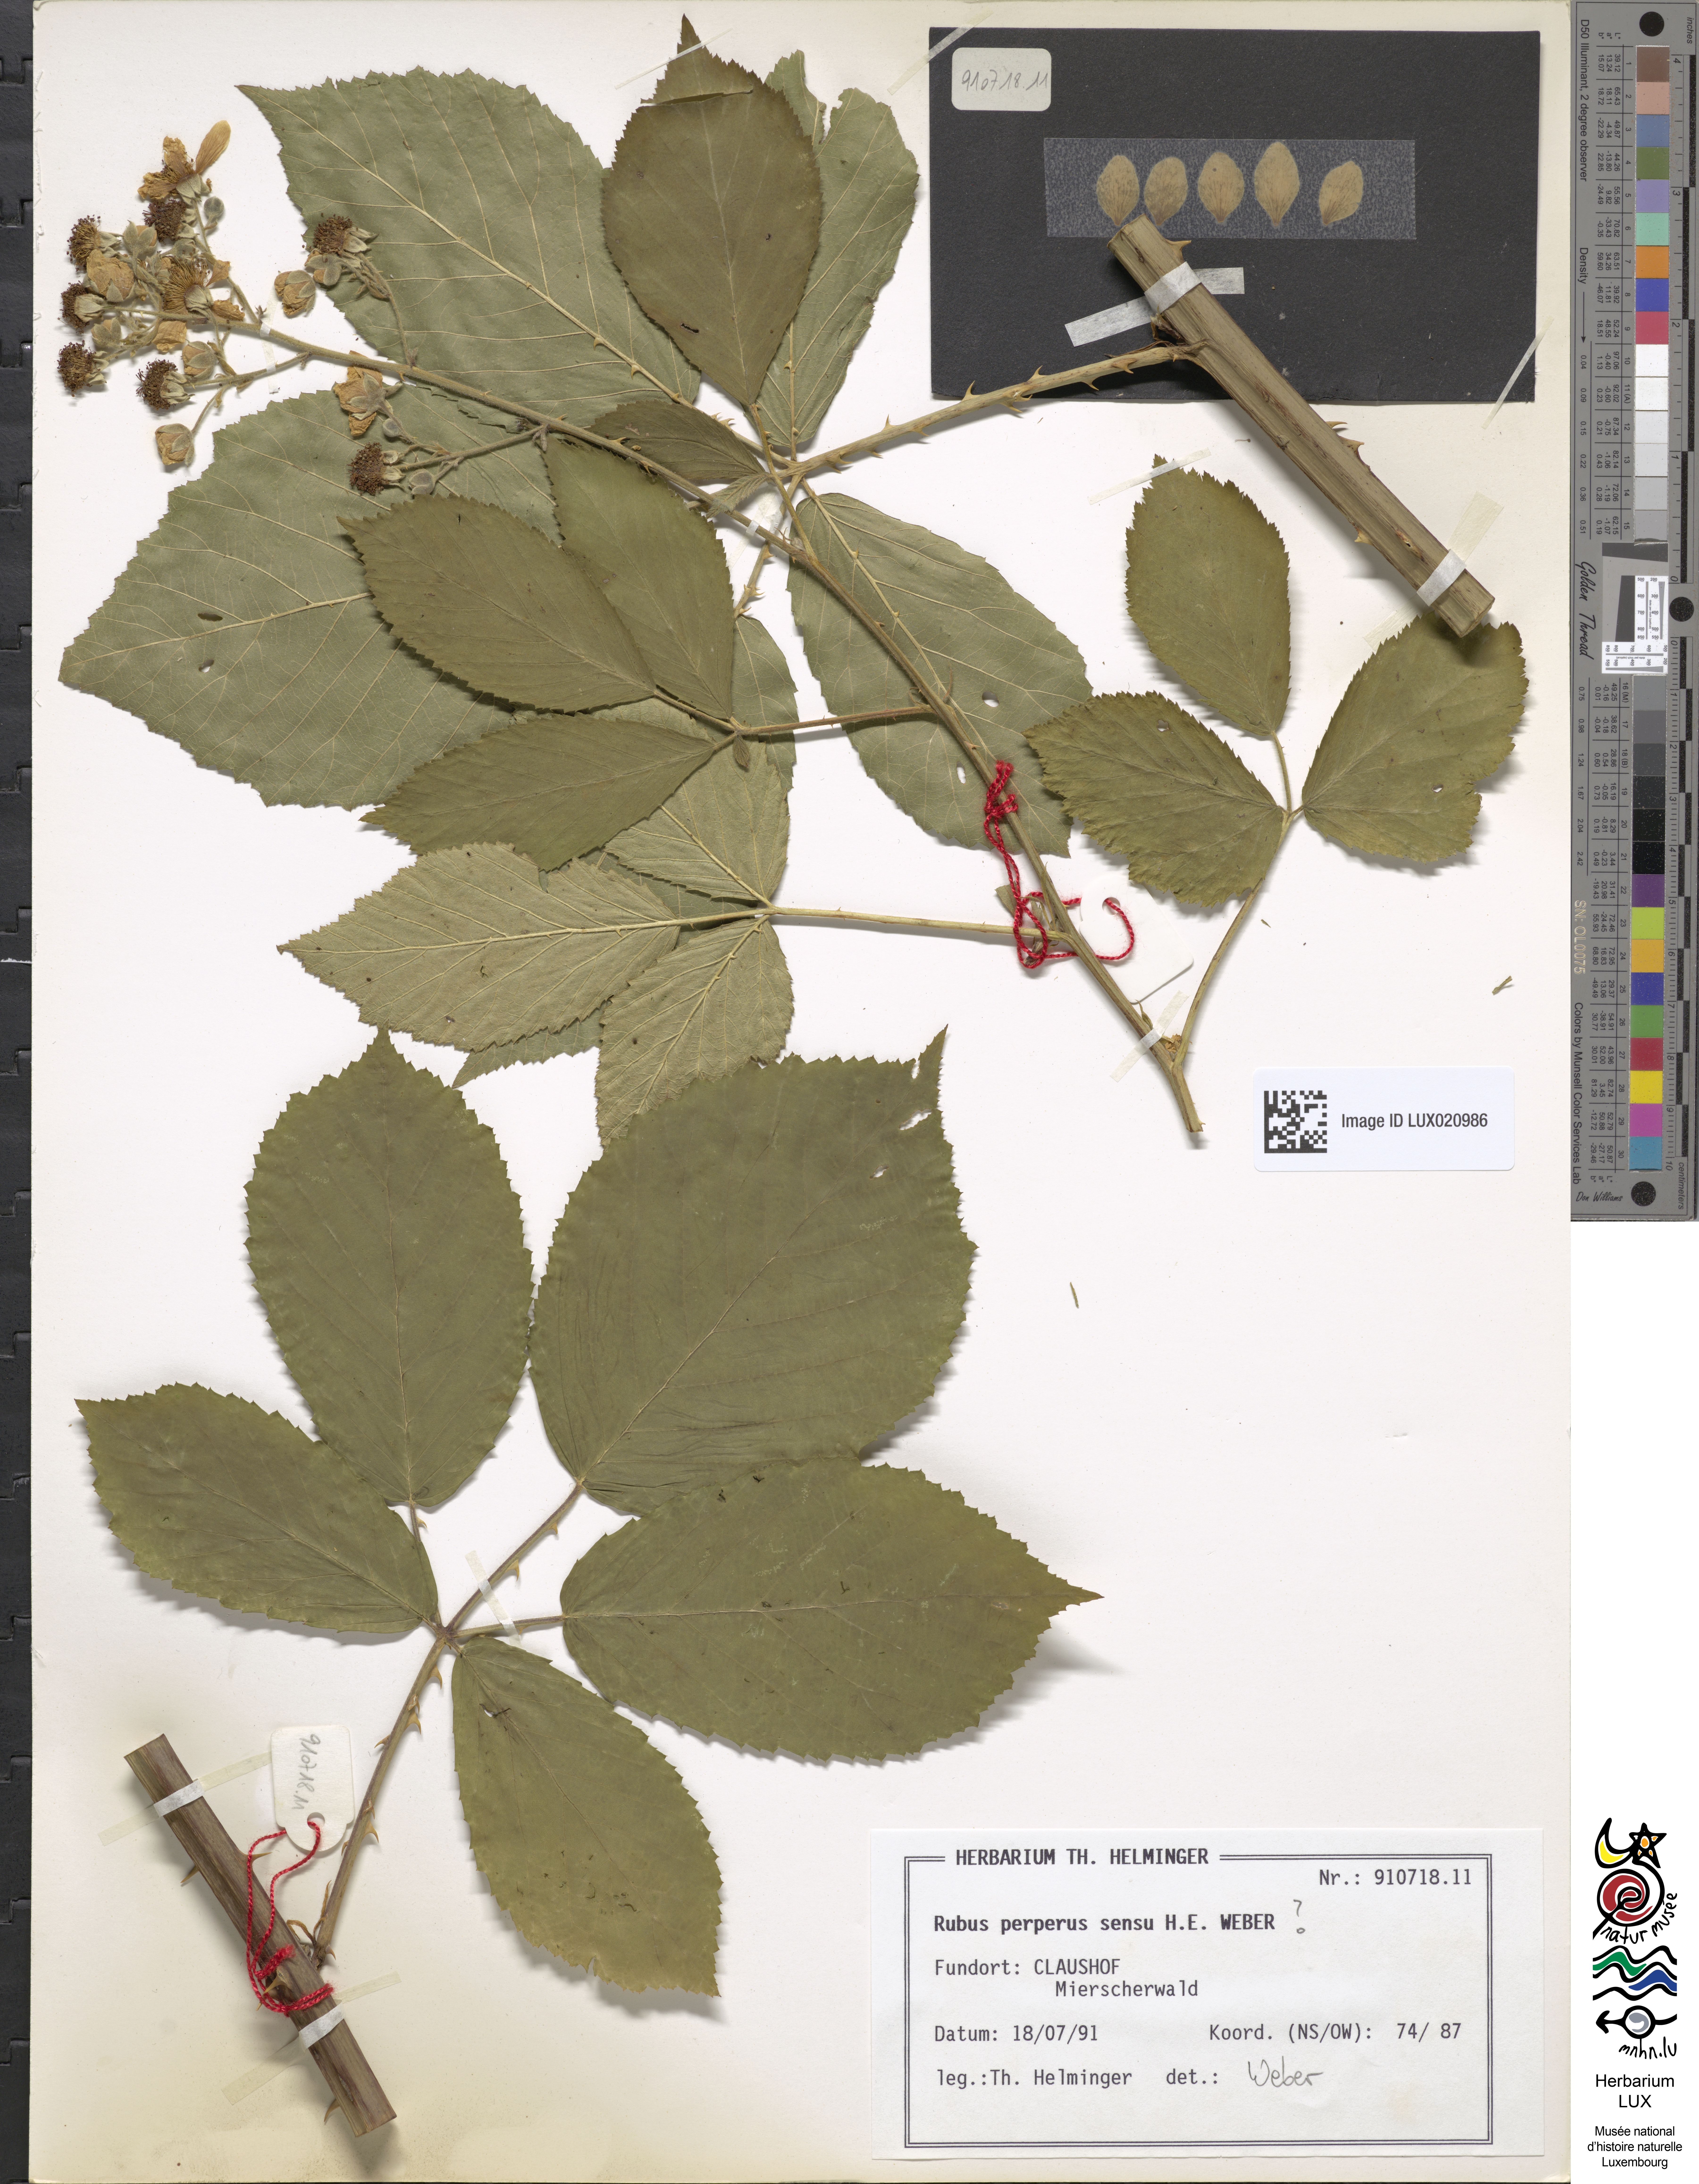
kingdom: Plantae
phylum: Tracheophyta
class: Magnoliopsida
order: Rosales
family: Rosaceae
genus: Rubus
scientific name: Rubus perperus
